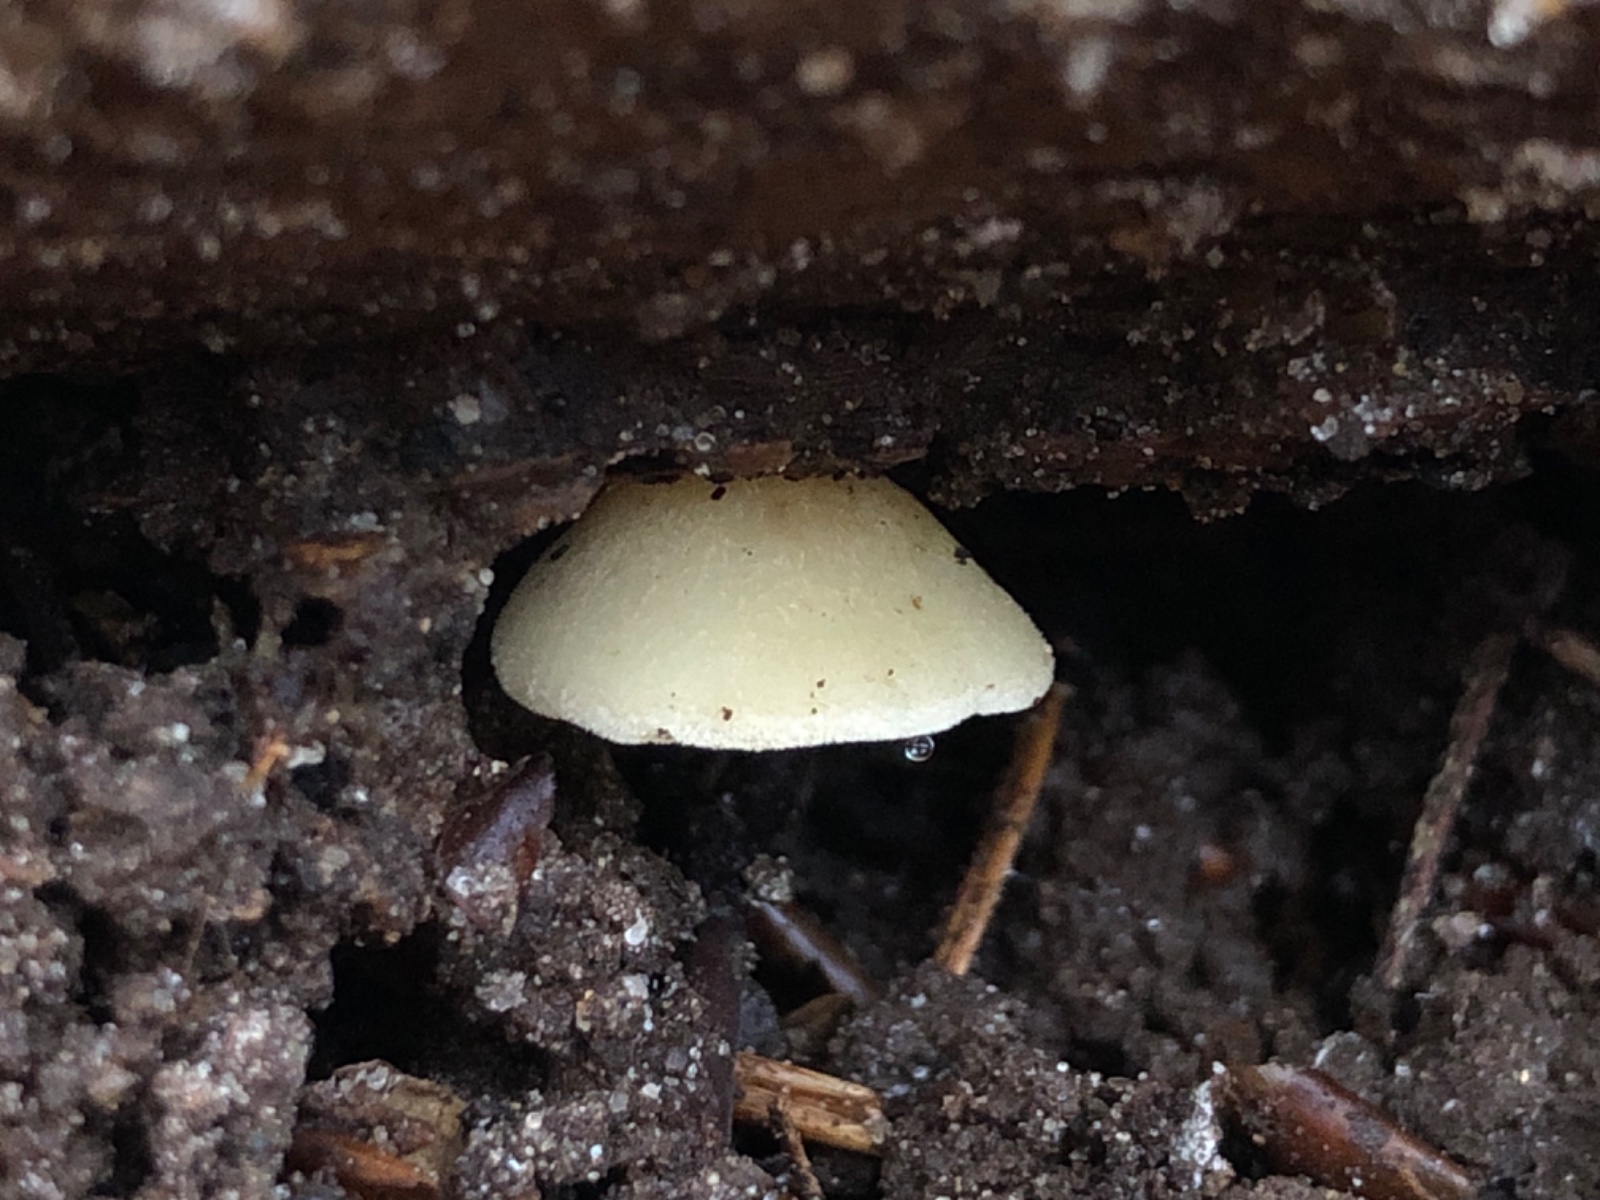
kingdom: Fungi
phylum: Basidiomycota
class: Agaricomycetes
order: Agaricales
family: Crepidotaceae
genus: Crepidotus
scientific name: Crepidotus mollis
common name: blød muslingesvamp
